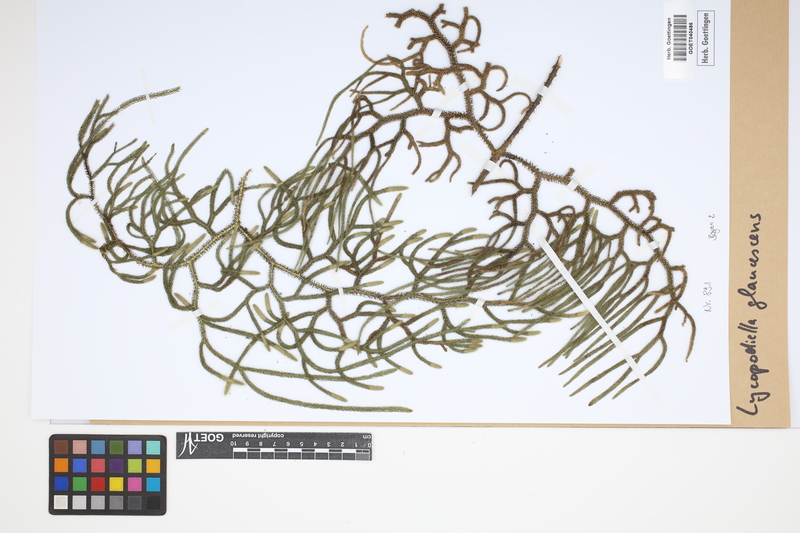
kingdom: Plantae
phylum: Tracheophyta
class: Lycopodiopsida
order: Lycopodiales
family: Lycopodiaceae
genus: Palhinhaea
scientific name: Palhinhaea glaucescens
